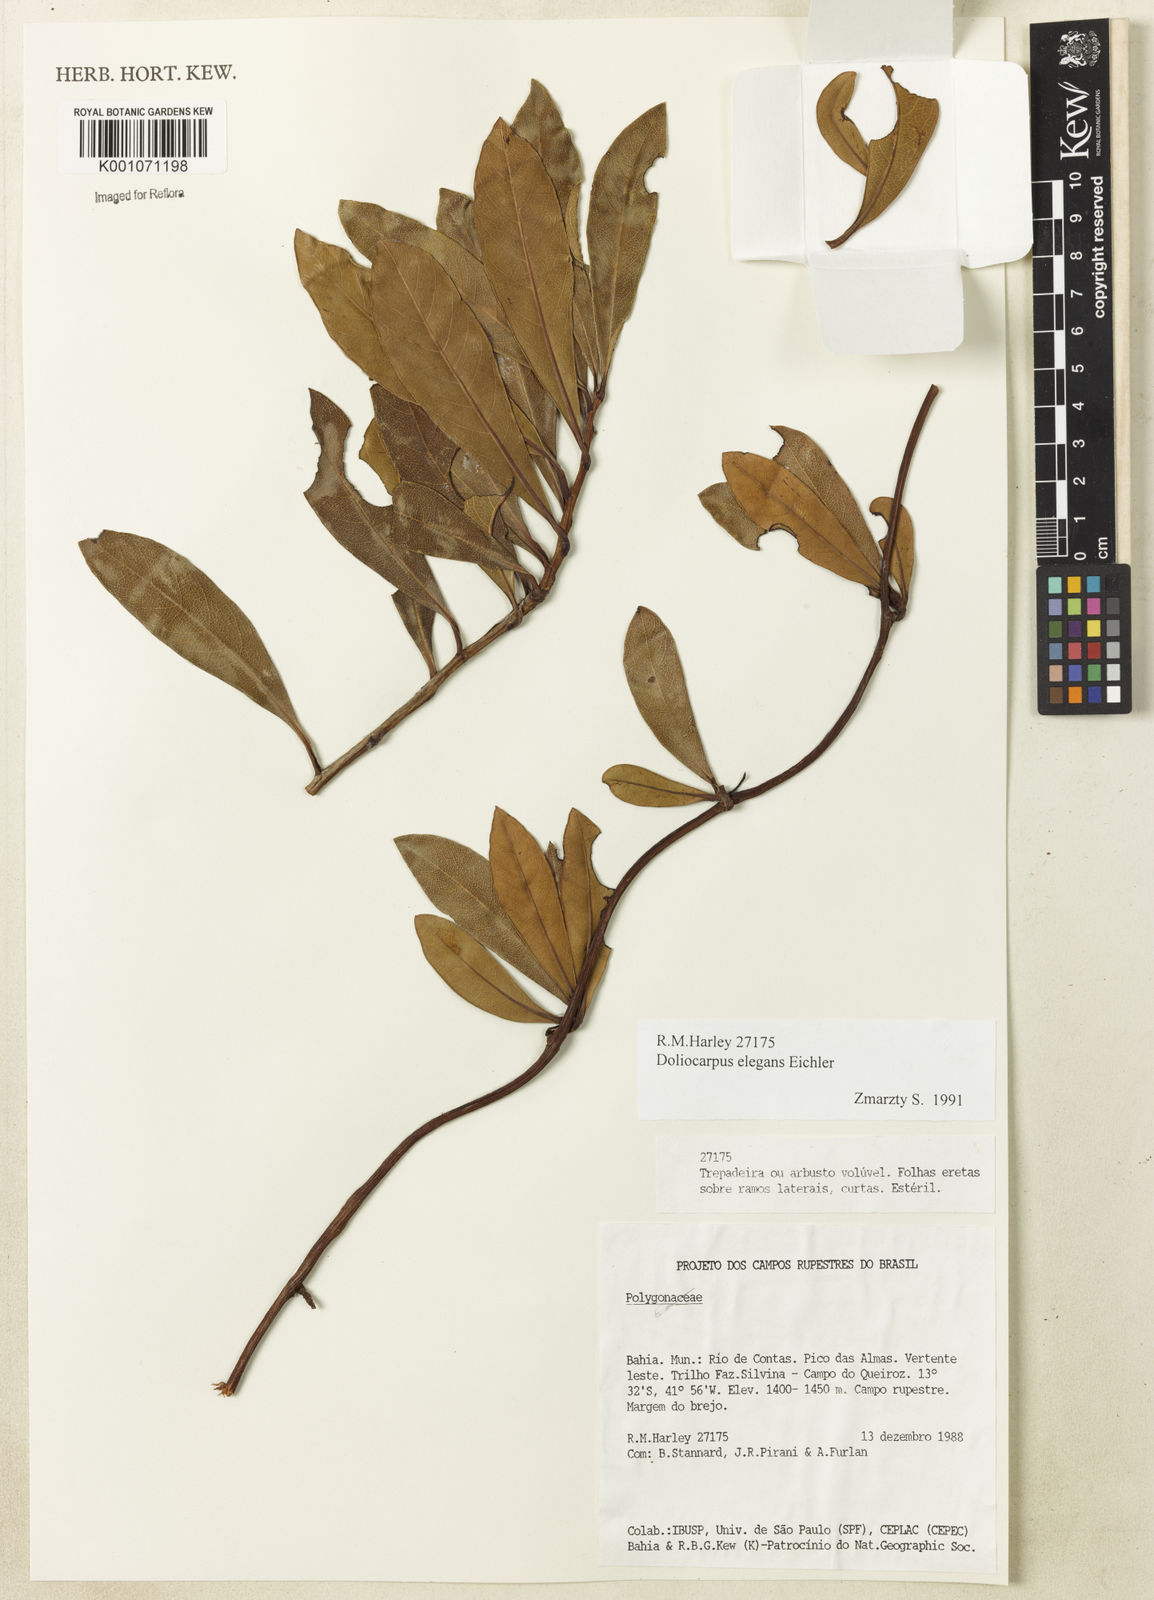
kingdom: Plantae
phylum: Tracheophyta
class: Magnoliopsida
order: Dilleniales
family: Dilleniaceae
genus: Doliocarpus
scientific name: Doliocarpus elegans
